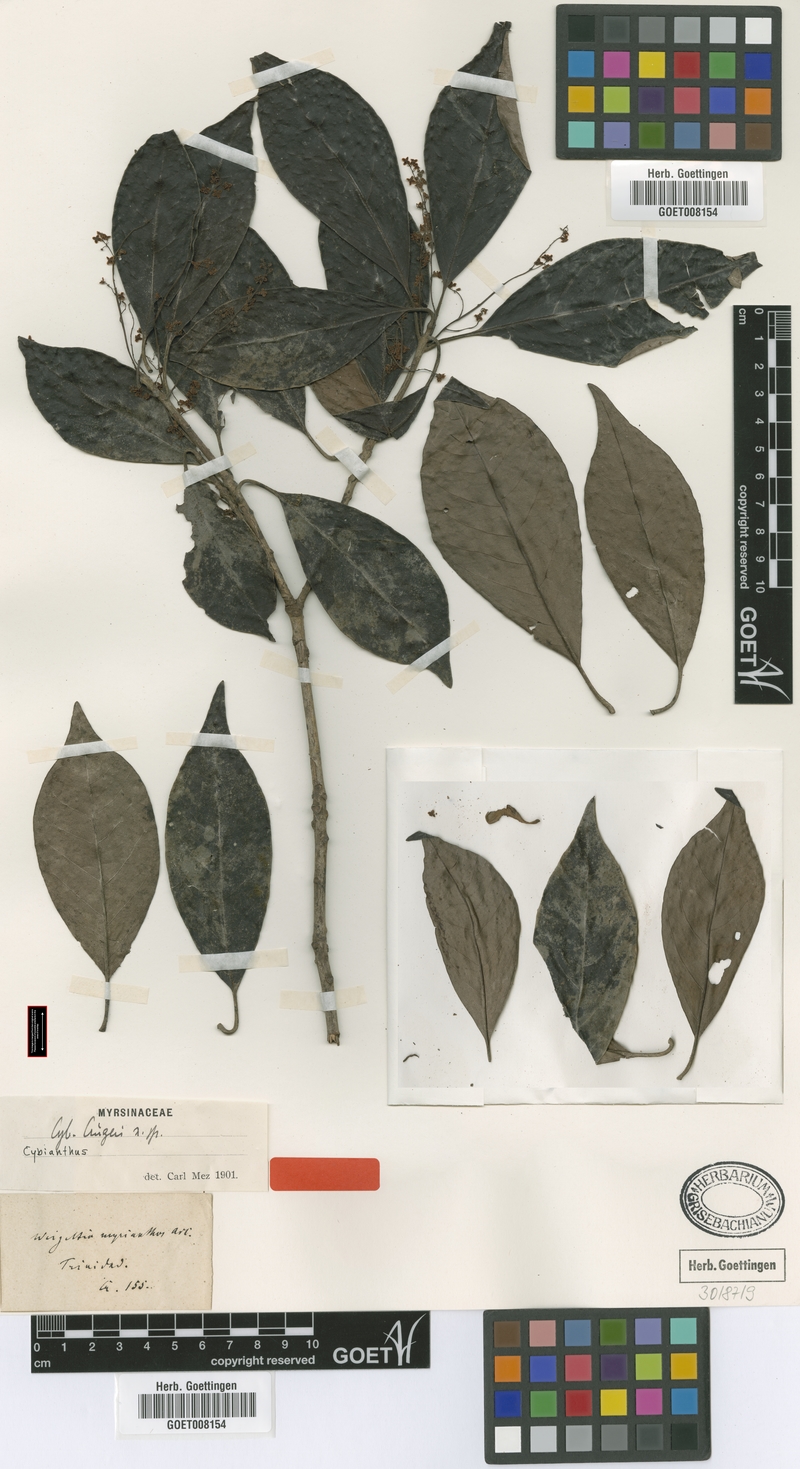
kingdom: Plantae
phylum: Tracheophyta
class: Magnoliopsida
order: Ericales
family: Primulaceae
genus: Cybianthus
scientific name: Cybianthus cruegeri
